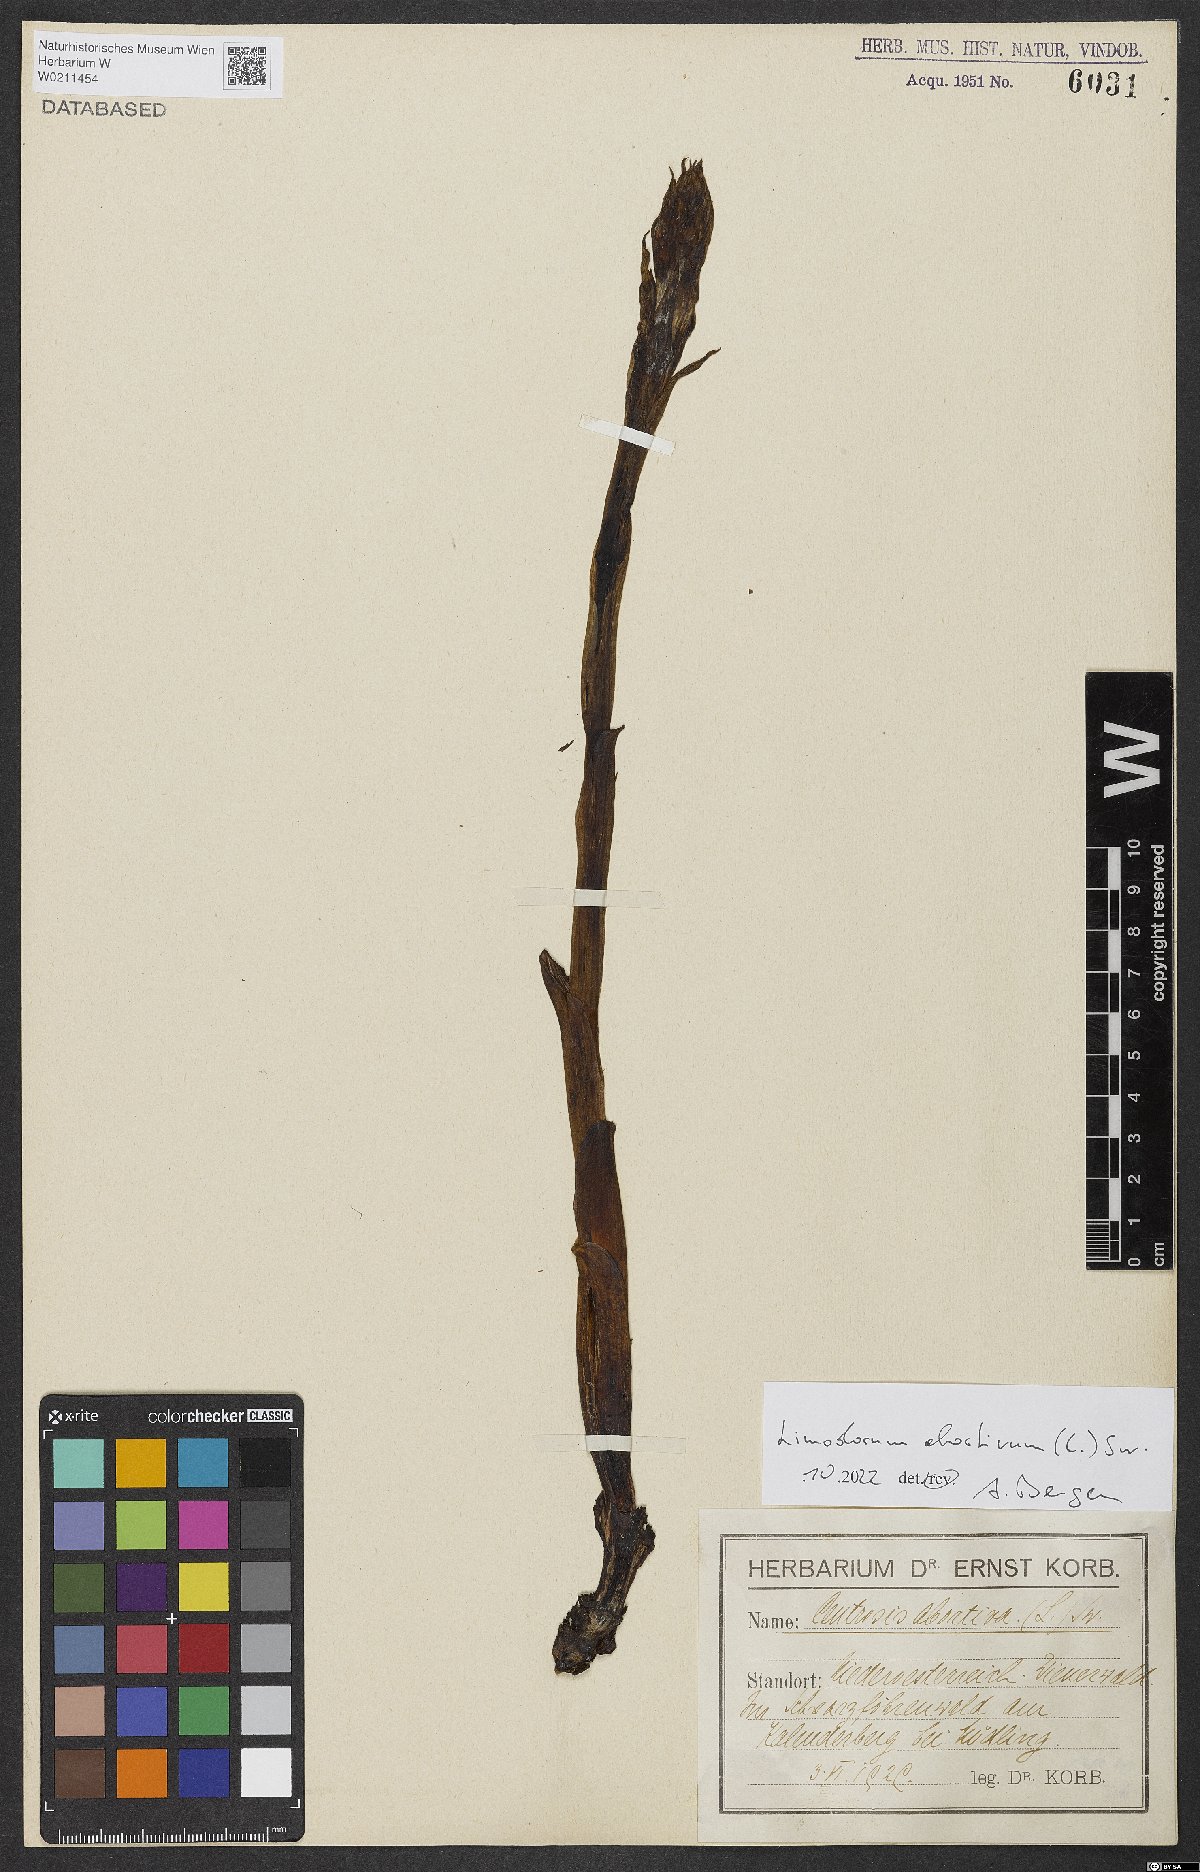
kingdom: Plantae
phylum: Tracheophyta
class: Liliopsida
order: Asparagales
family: Orchidaceae
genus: Limodorum
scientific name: Limodorum abortivum
